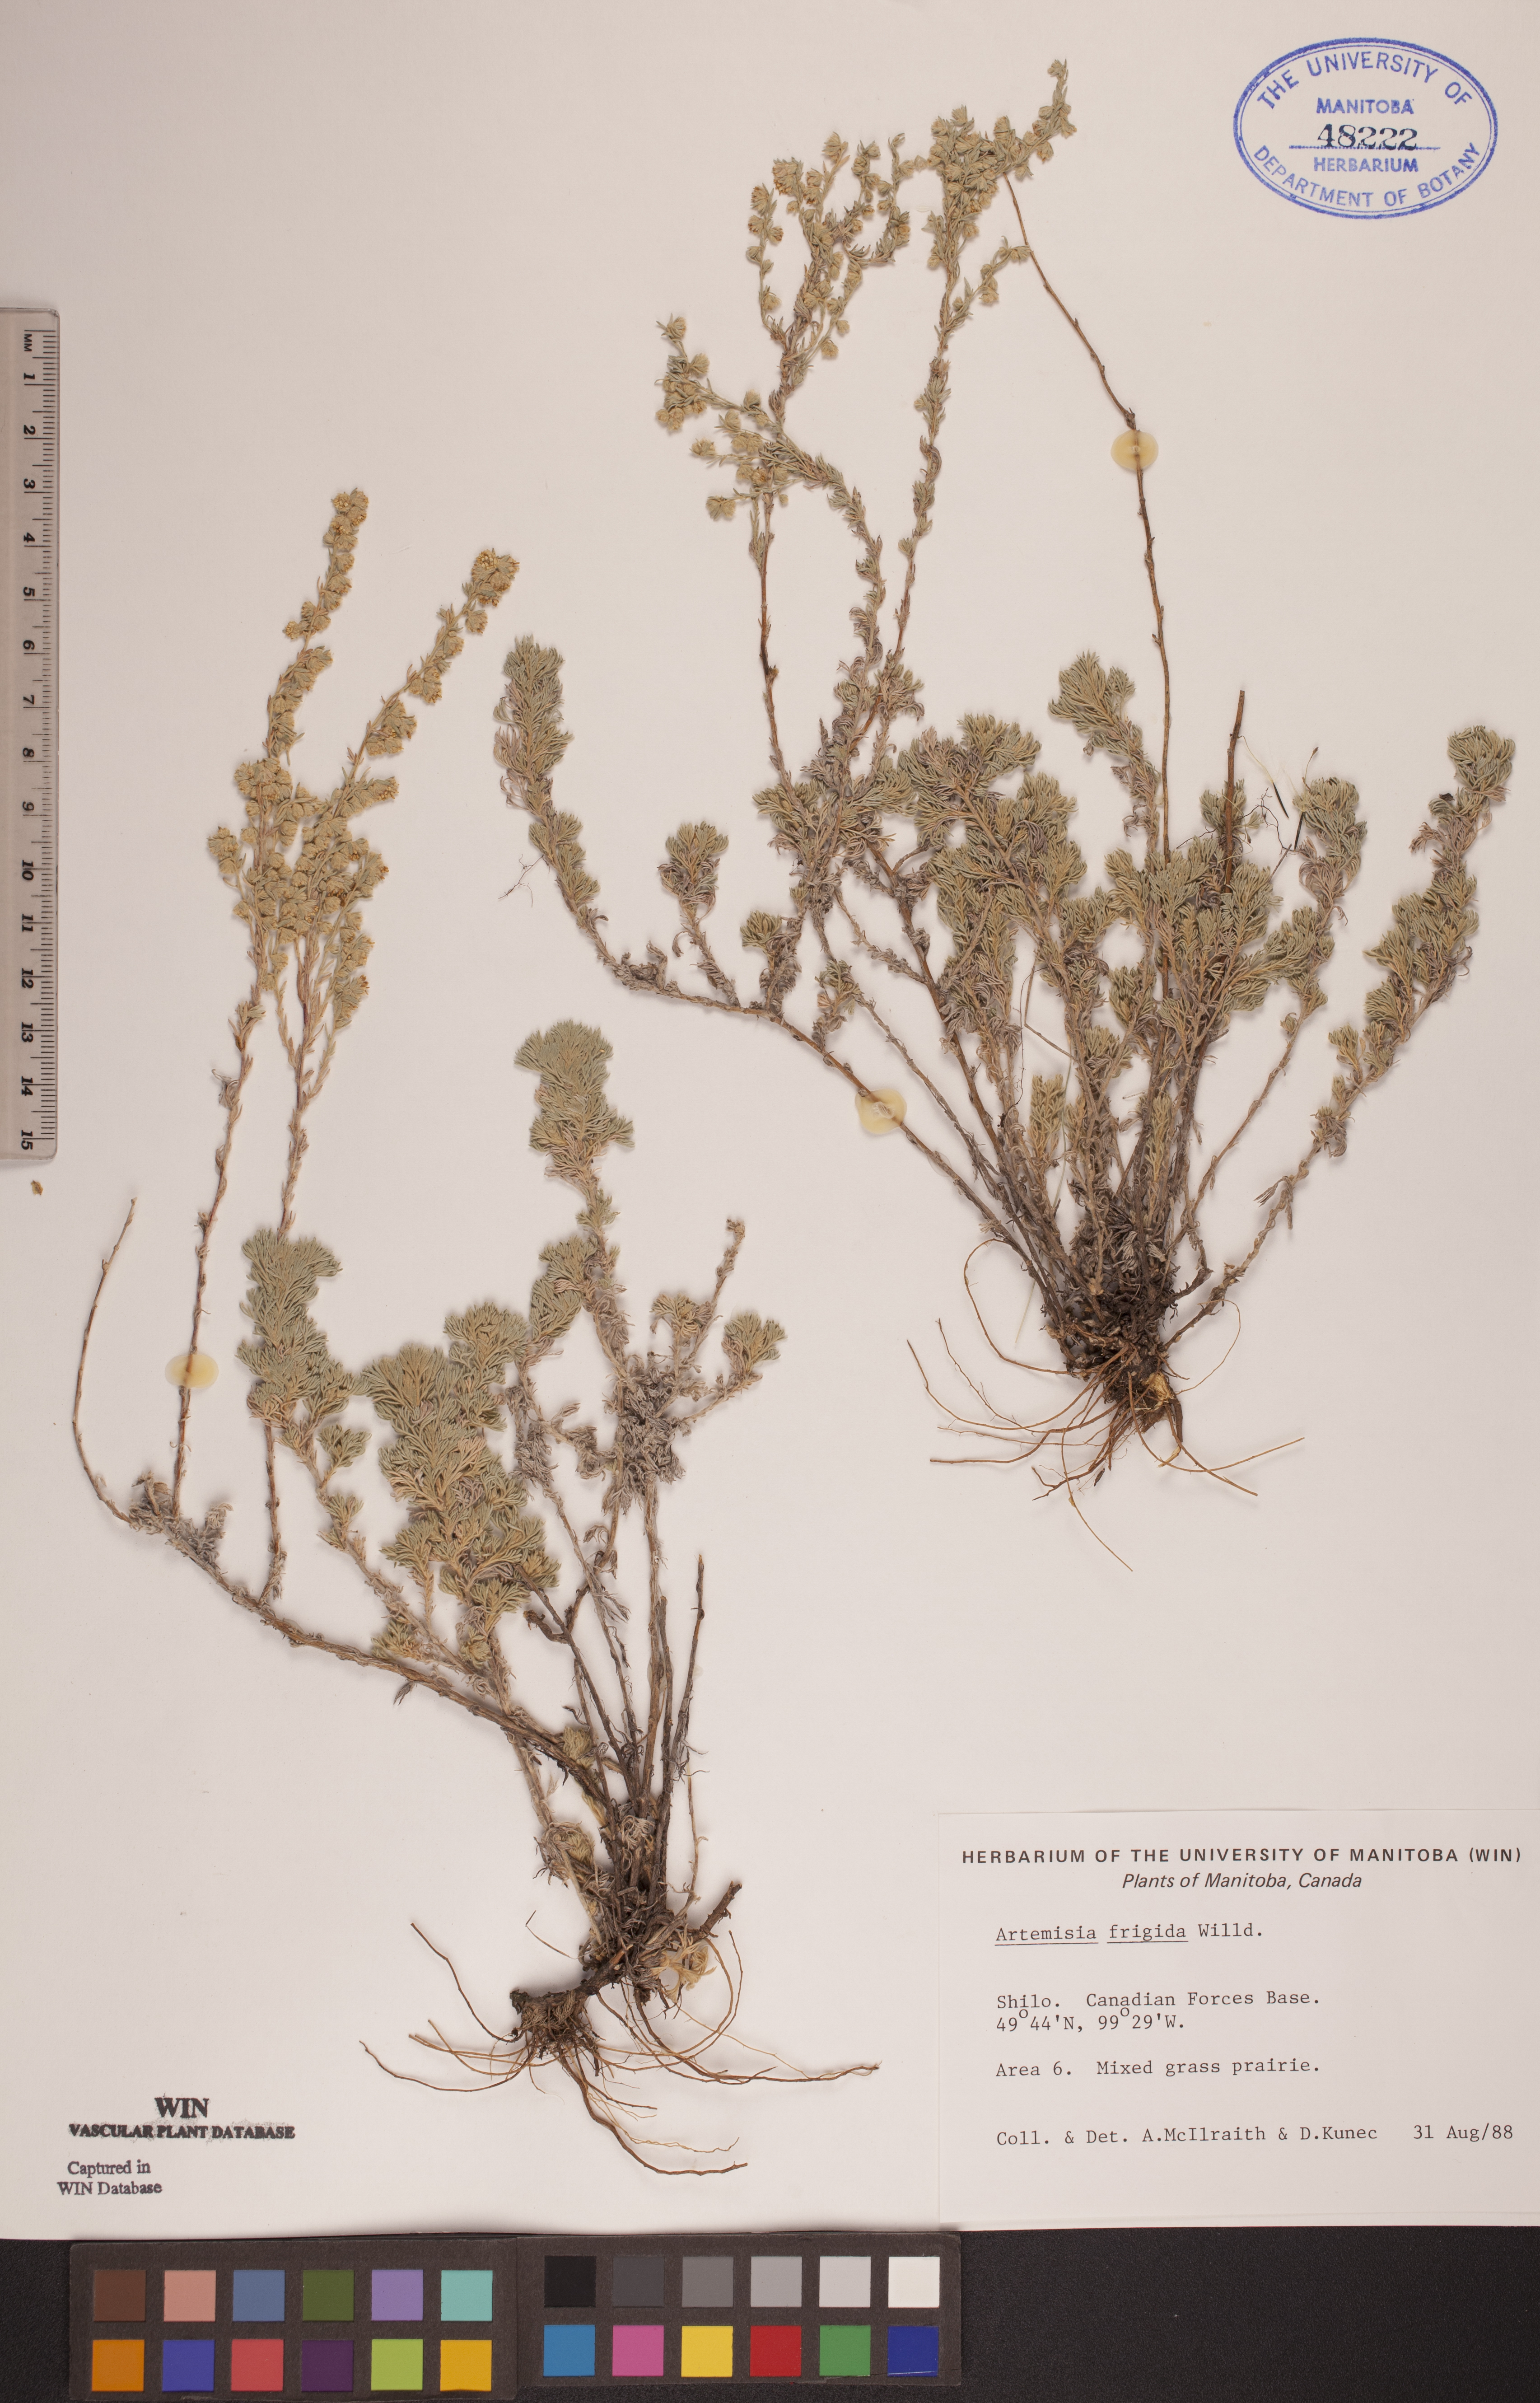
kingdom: Plantae
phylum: Tracheophyta
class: Magnoliopsida
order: Asterales
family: Asteraceae
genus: Artemisia
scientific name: Artemisia frigida
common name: Prairie sagewort
